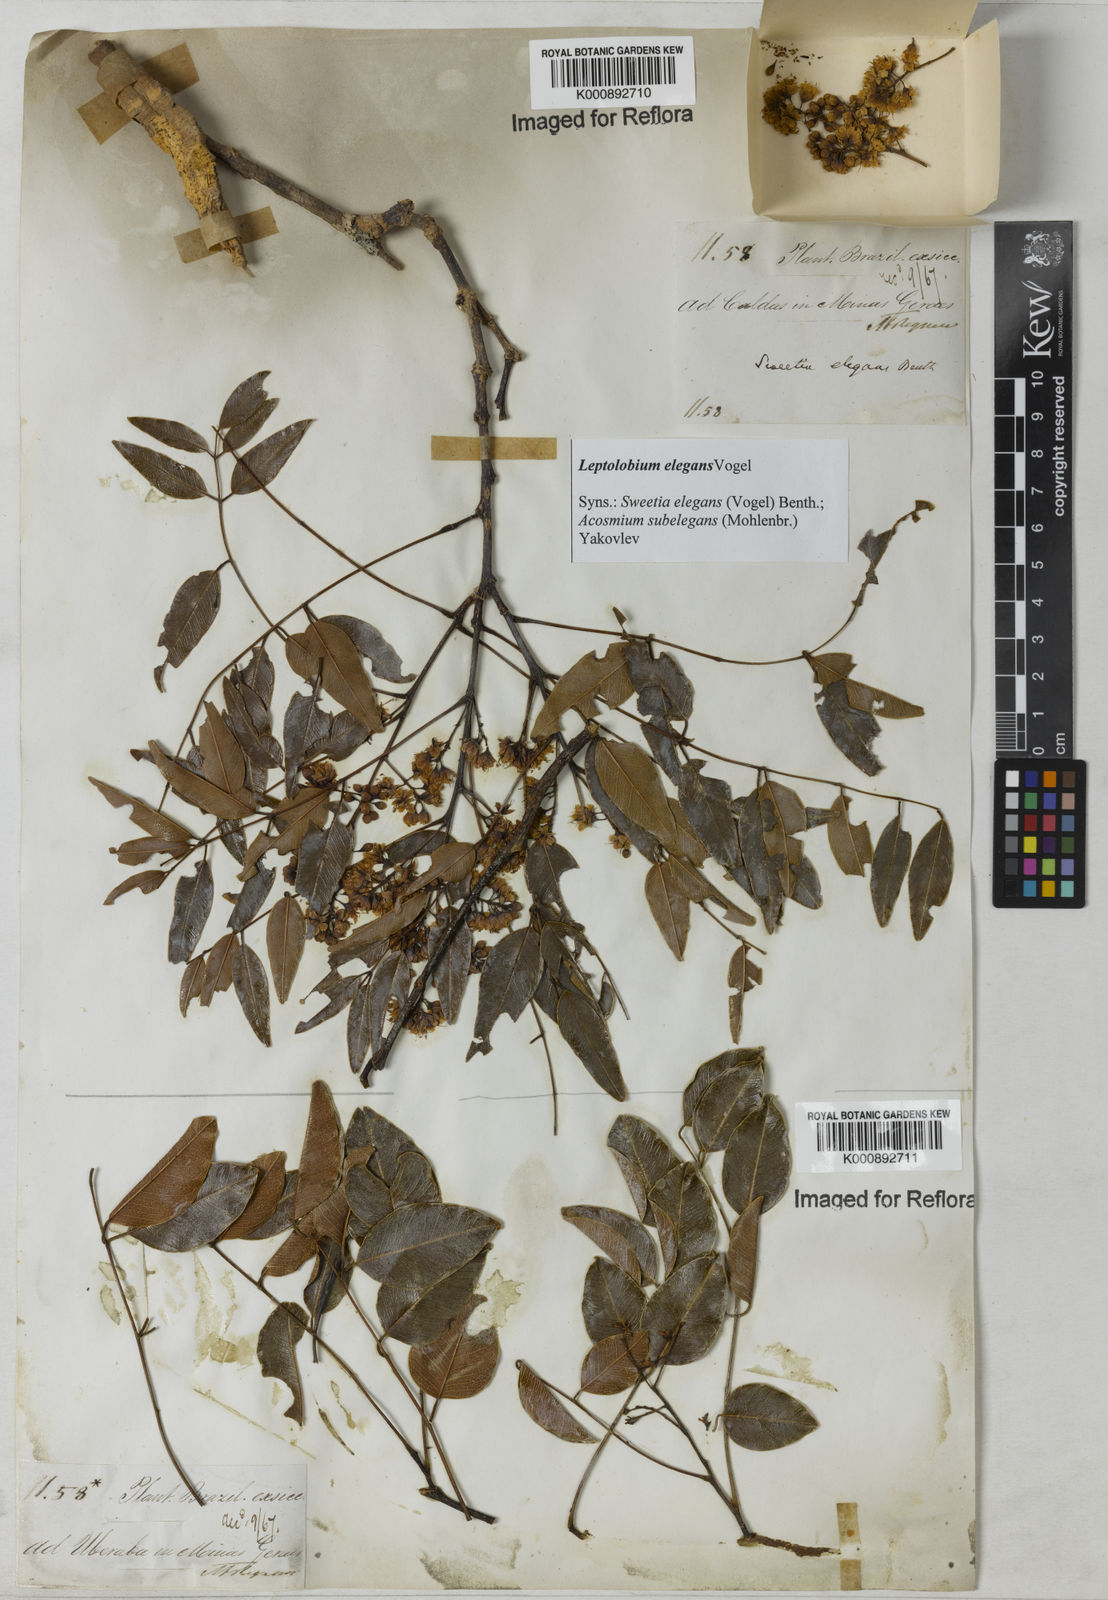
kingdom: Plantae
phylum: Tracheophyta
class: Magnoliopsida
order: Fabales
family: Fabaceae
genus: Leptolobium
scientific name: Leptolobium elegans
